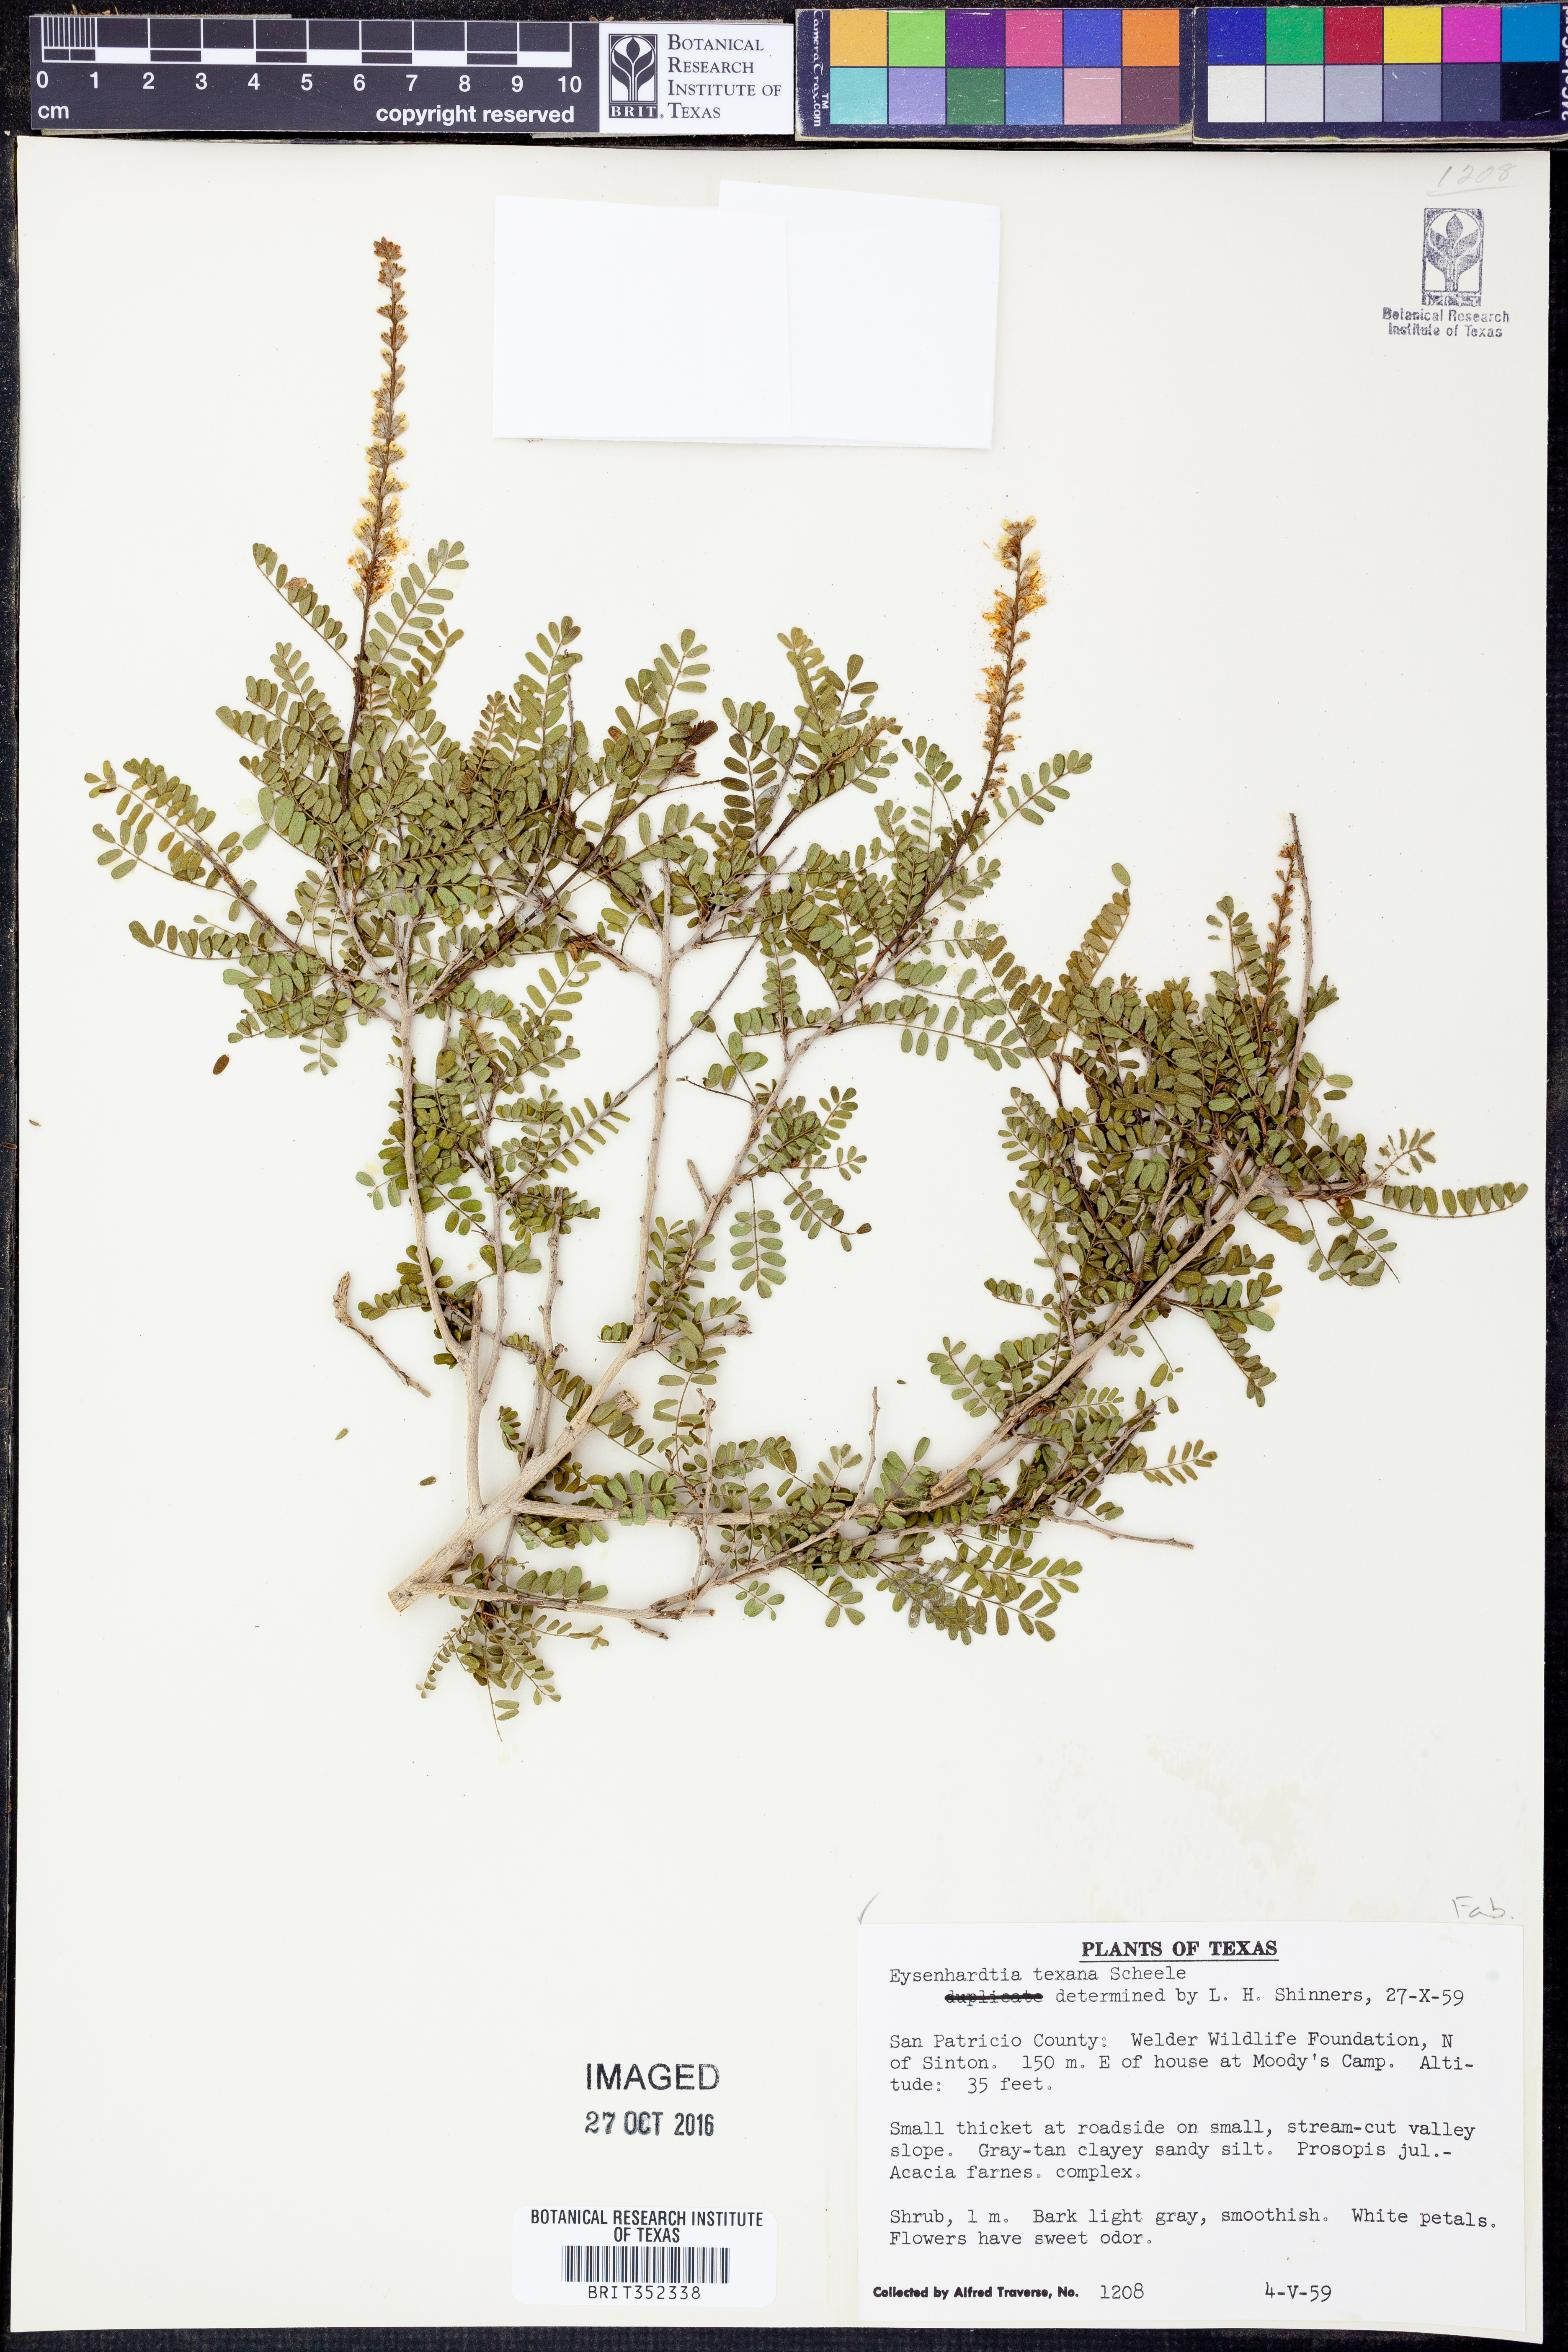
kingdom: Plantae
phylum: Tracheophyta
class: Magnoliopsida
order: Fabales
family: Fabaceae
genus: Eysenhardtia
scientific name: Eysenhardtia texana
